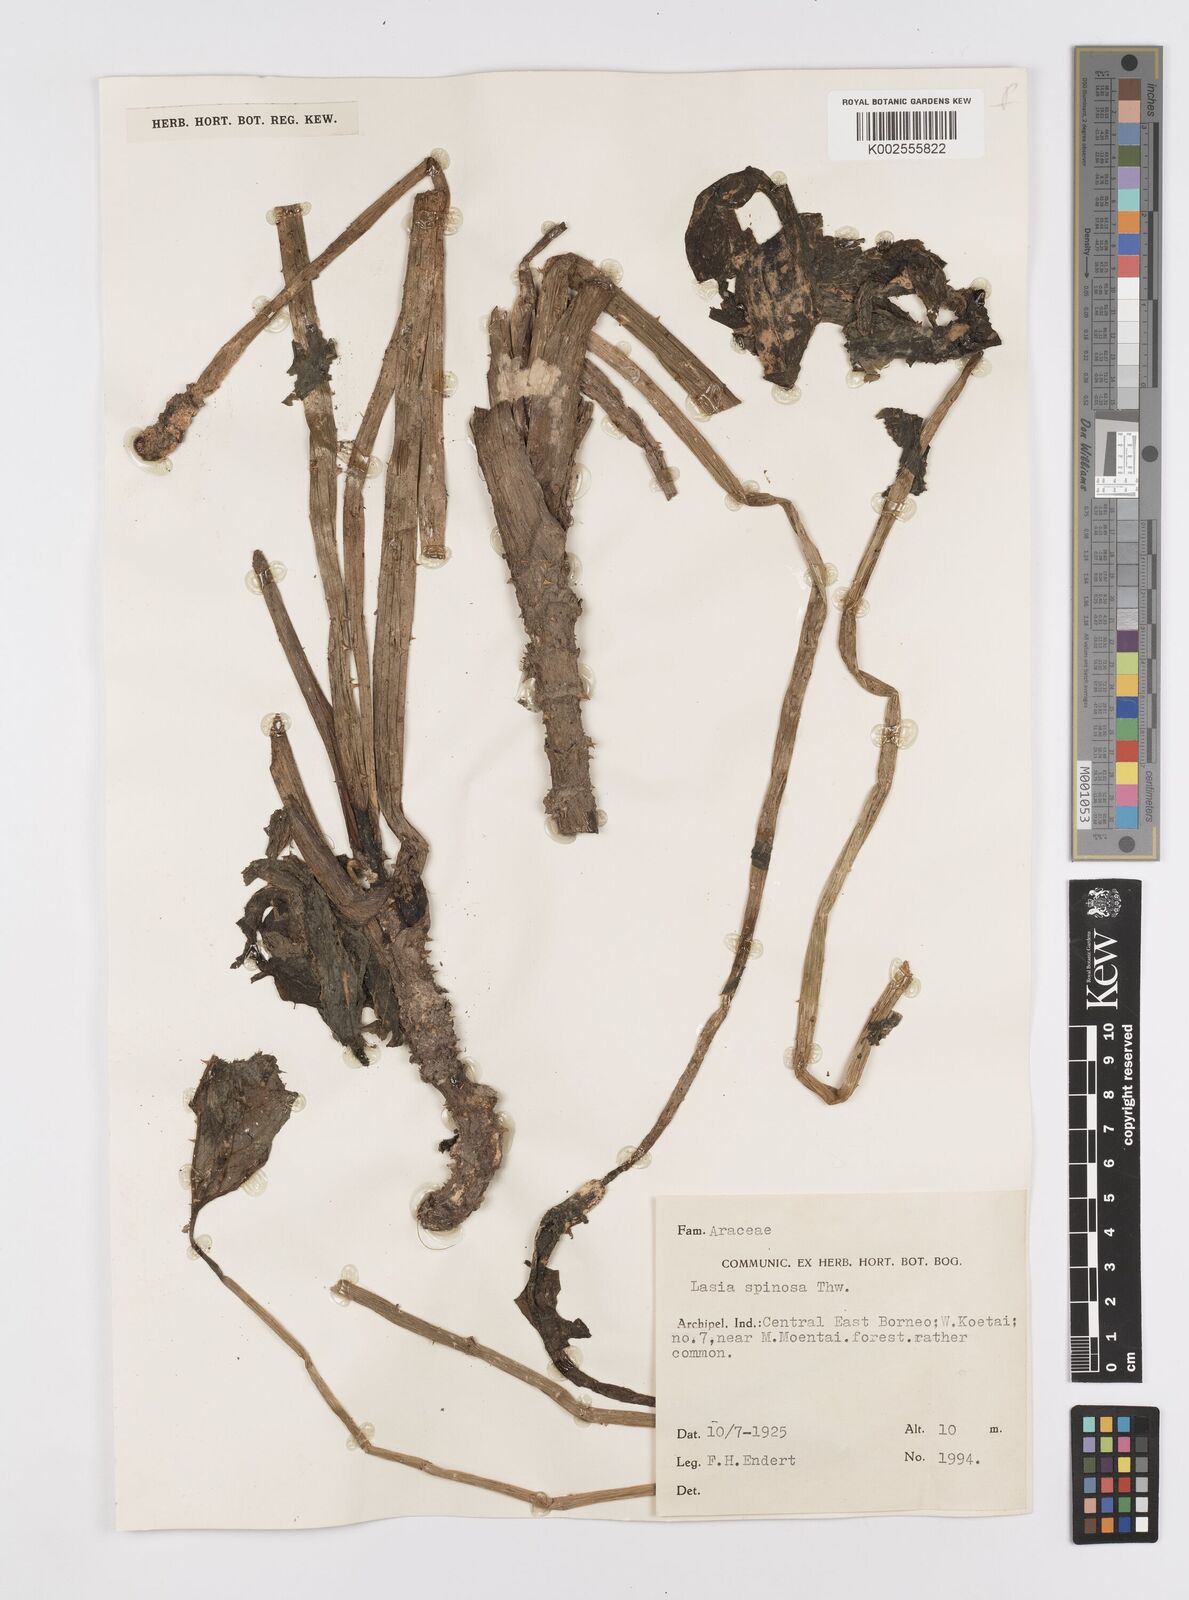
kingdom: Plantae
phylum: Tracheophyta
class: Liliopsida
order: Alismatales
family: Araceae
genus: Lasia
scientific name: Lasia spinosa
